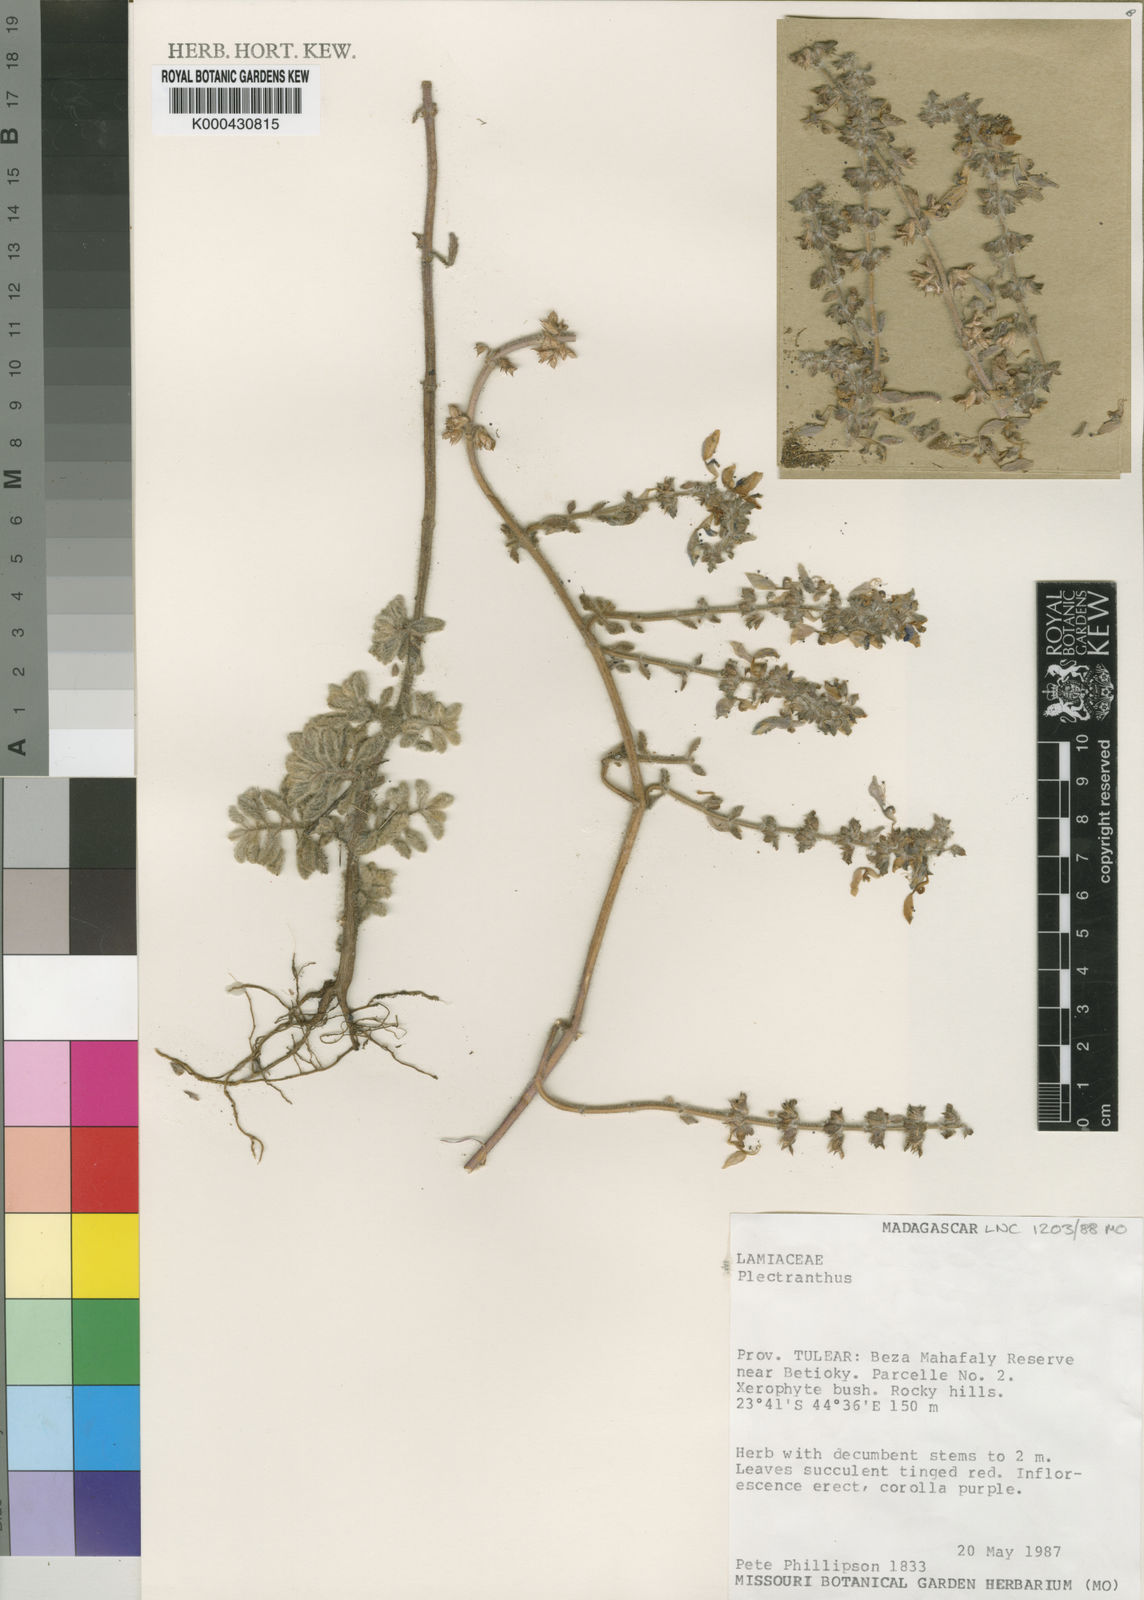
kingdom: Plantae
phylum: Tracheophyta
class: Magnoliopsida
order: Lamiales
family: Lamiaceae
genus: Coleus
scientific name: Coleus lasianthus
